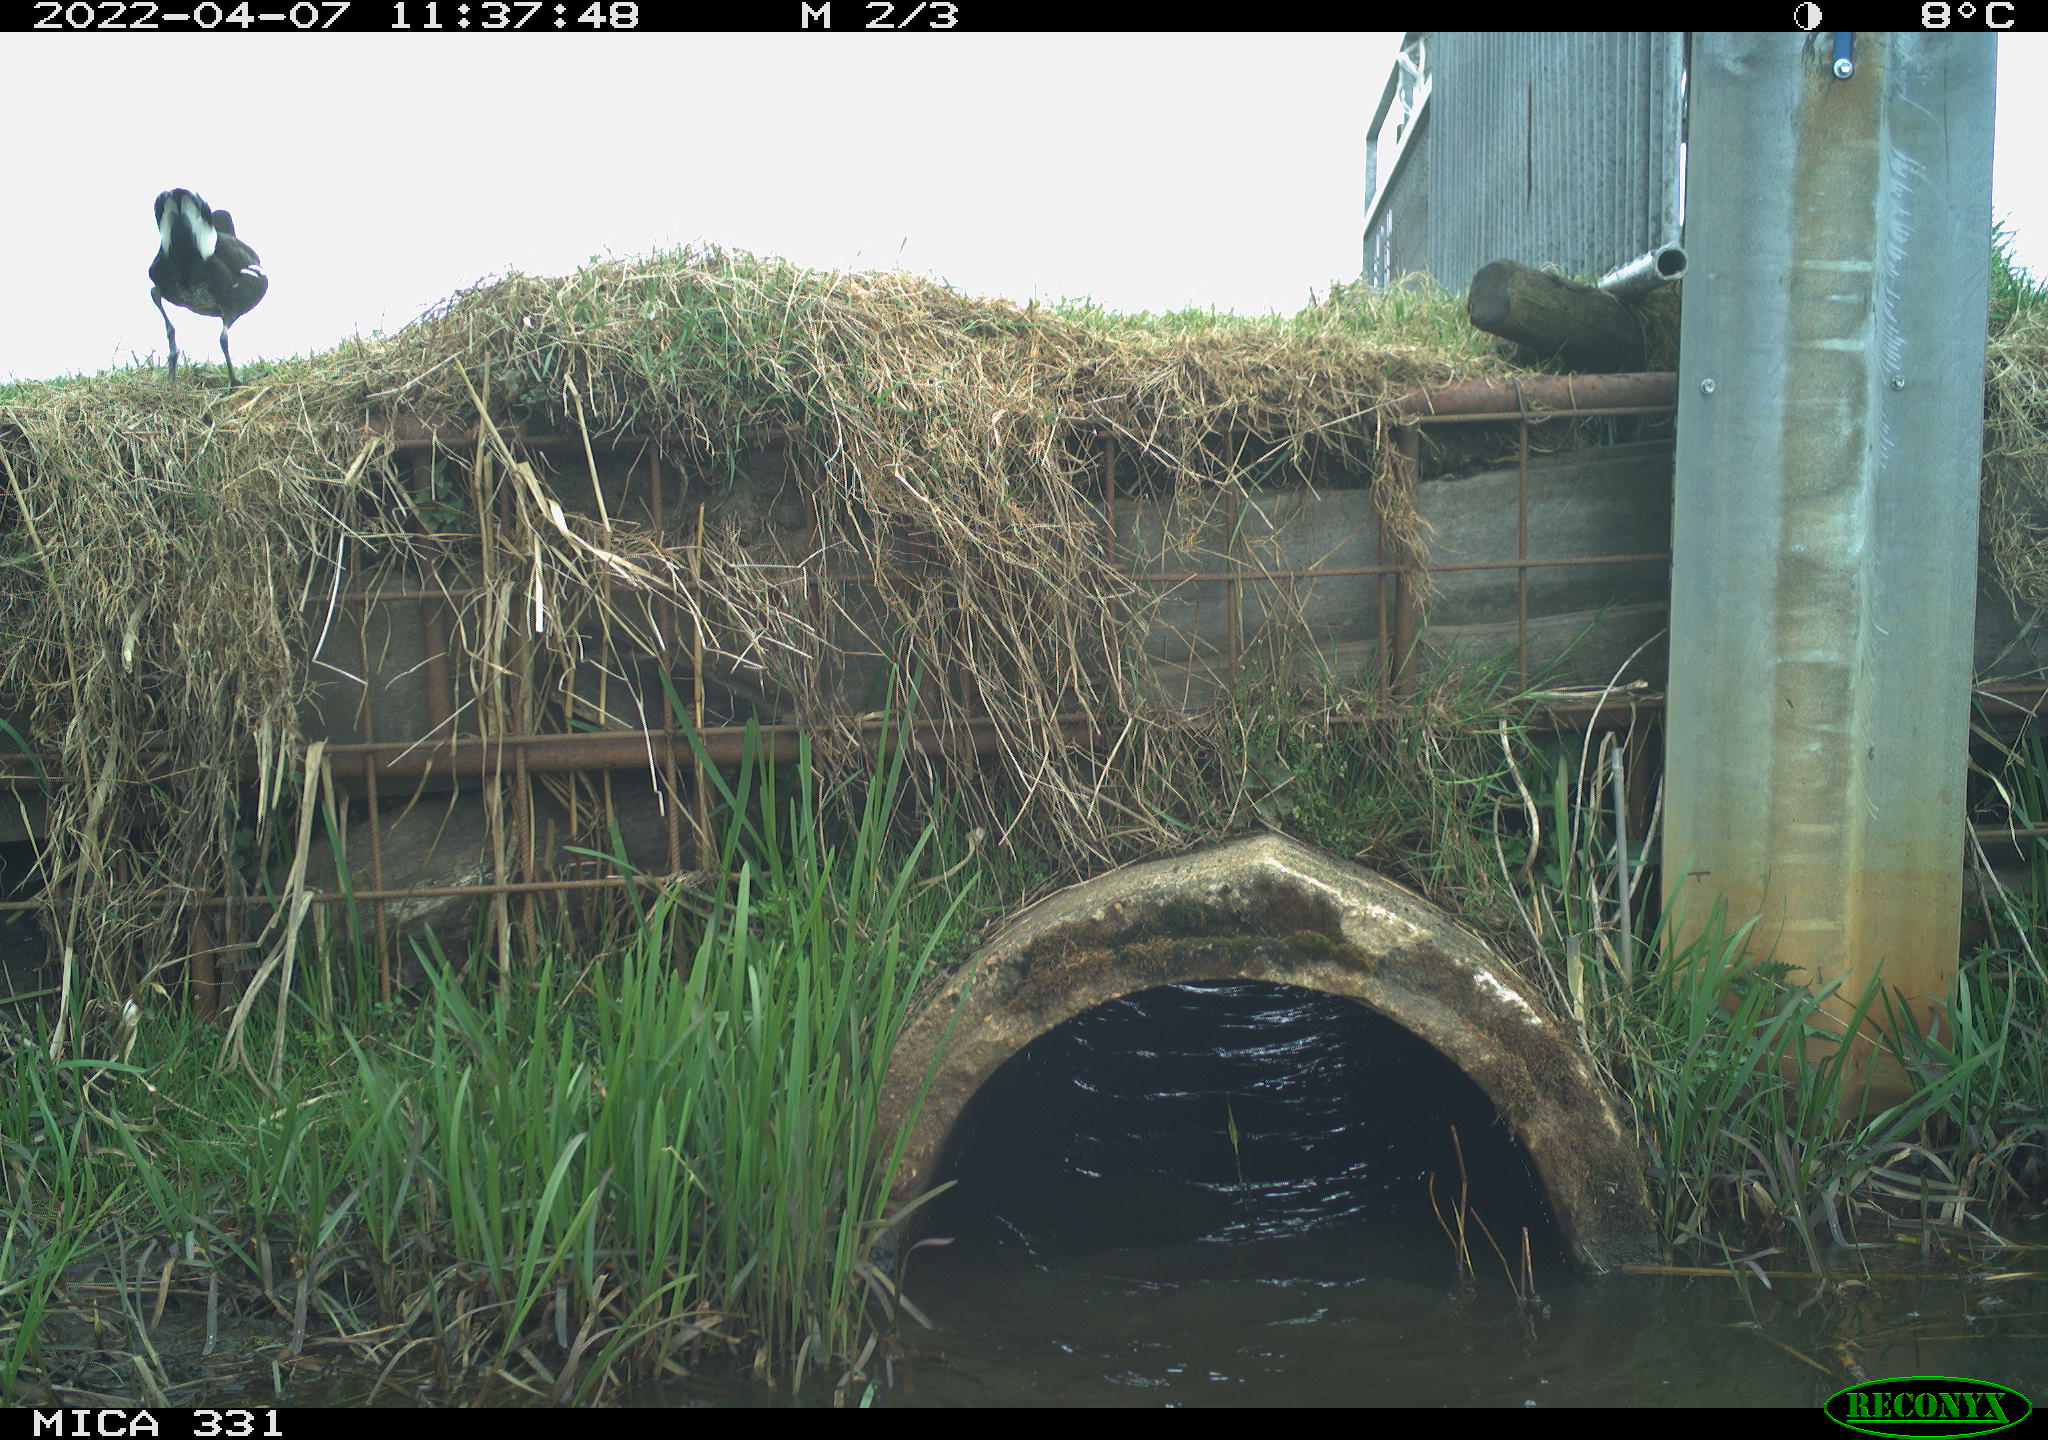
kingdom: Animalia
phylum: Chordata
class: Aves
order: Gruiformes
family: Rallidae
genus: Gallinula
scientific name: Gallinula chloropus
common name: Common moorhen
